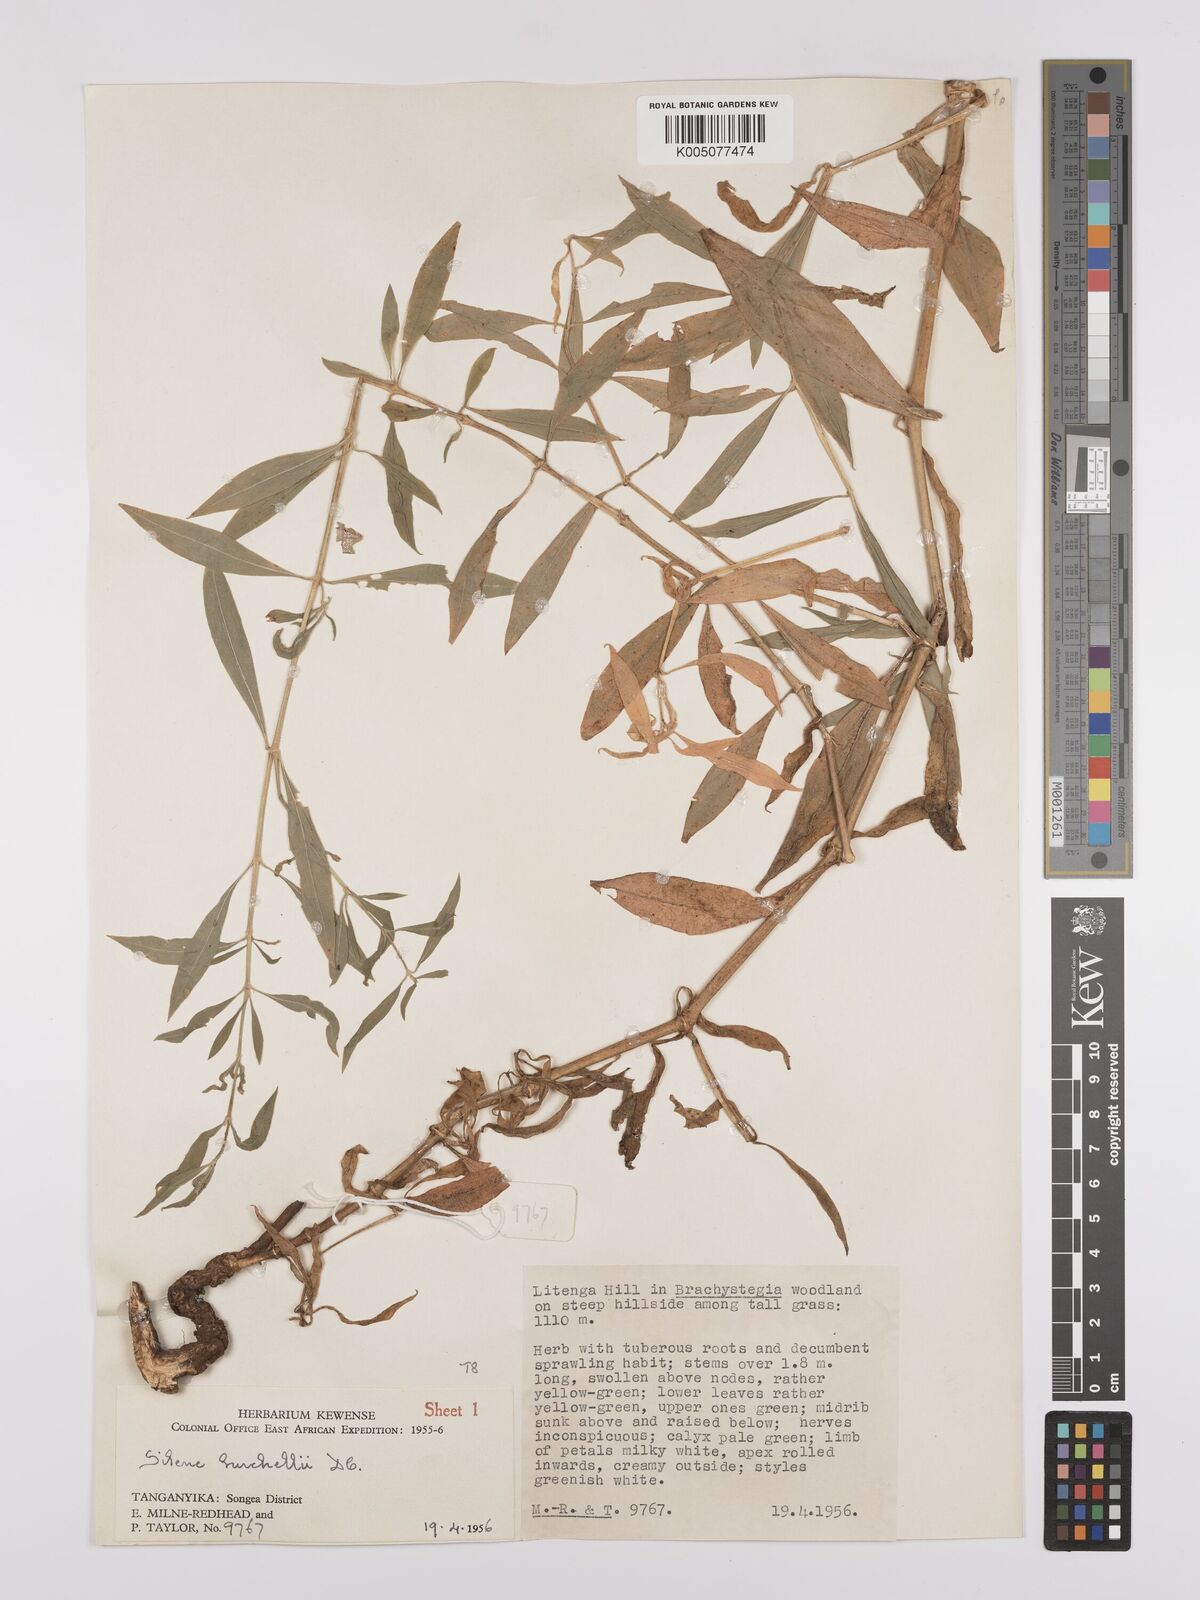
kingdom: Plantae
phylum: Tracheophyta
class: Magnoliopsida
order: Caryophyllales
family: Caryophyllaceae
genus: Silene
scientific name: Silene burchellii
